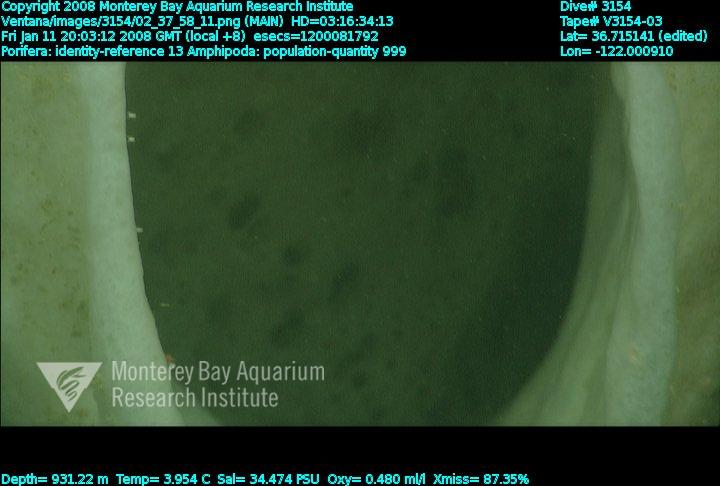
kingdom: Animalia
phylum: Porifera
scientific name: Porifera
